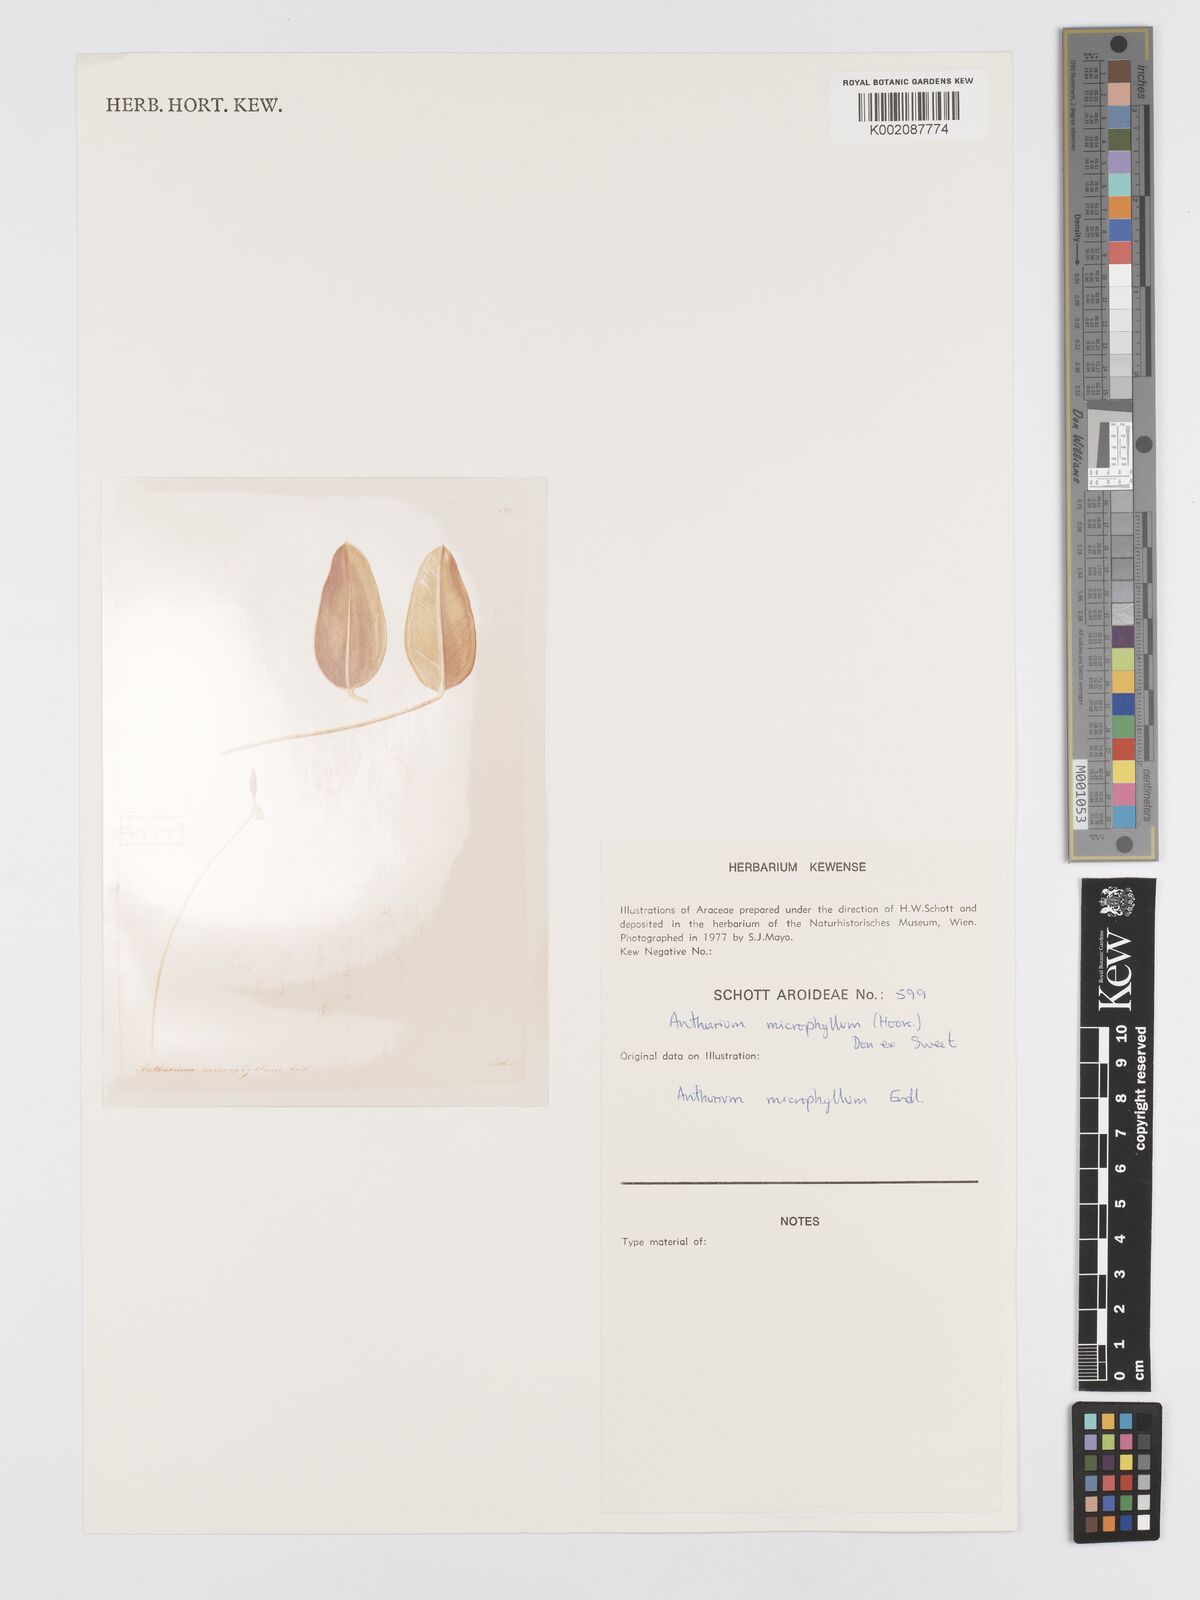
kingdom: Plantae
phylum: Tracheophyta
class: Liliopsida
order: Alismatales
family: Araceae
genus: Anthurium
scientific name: Anthurium microphyllum
